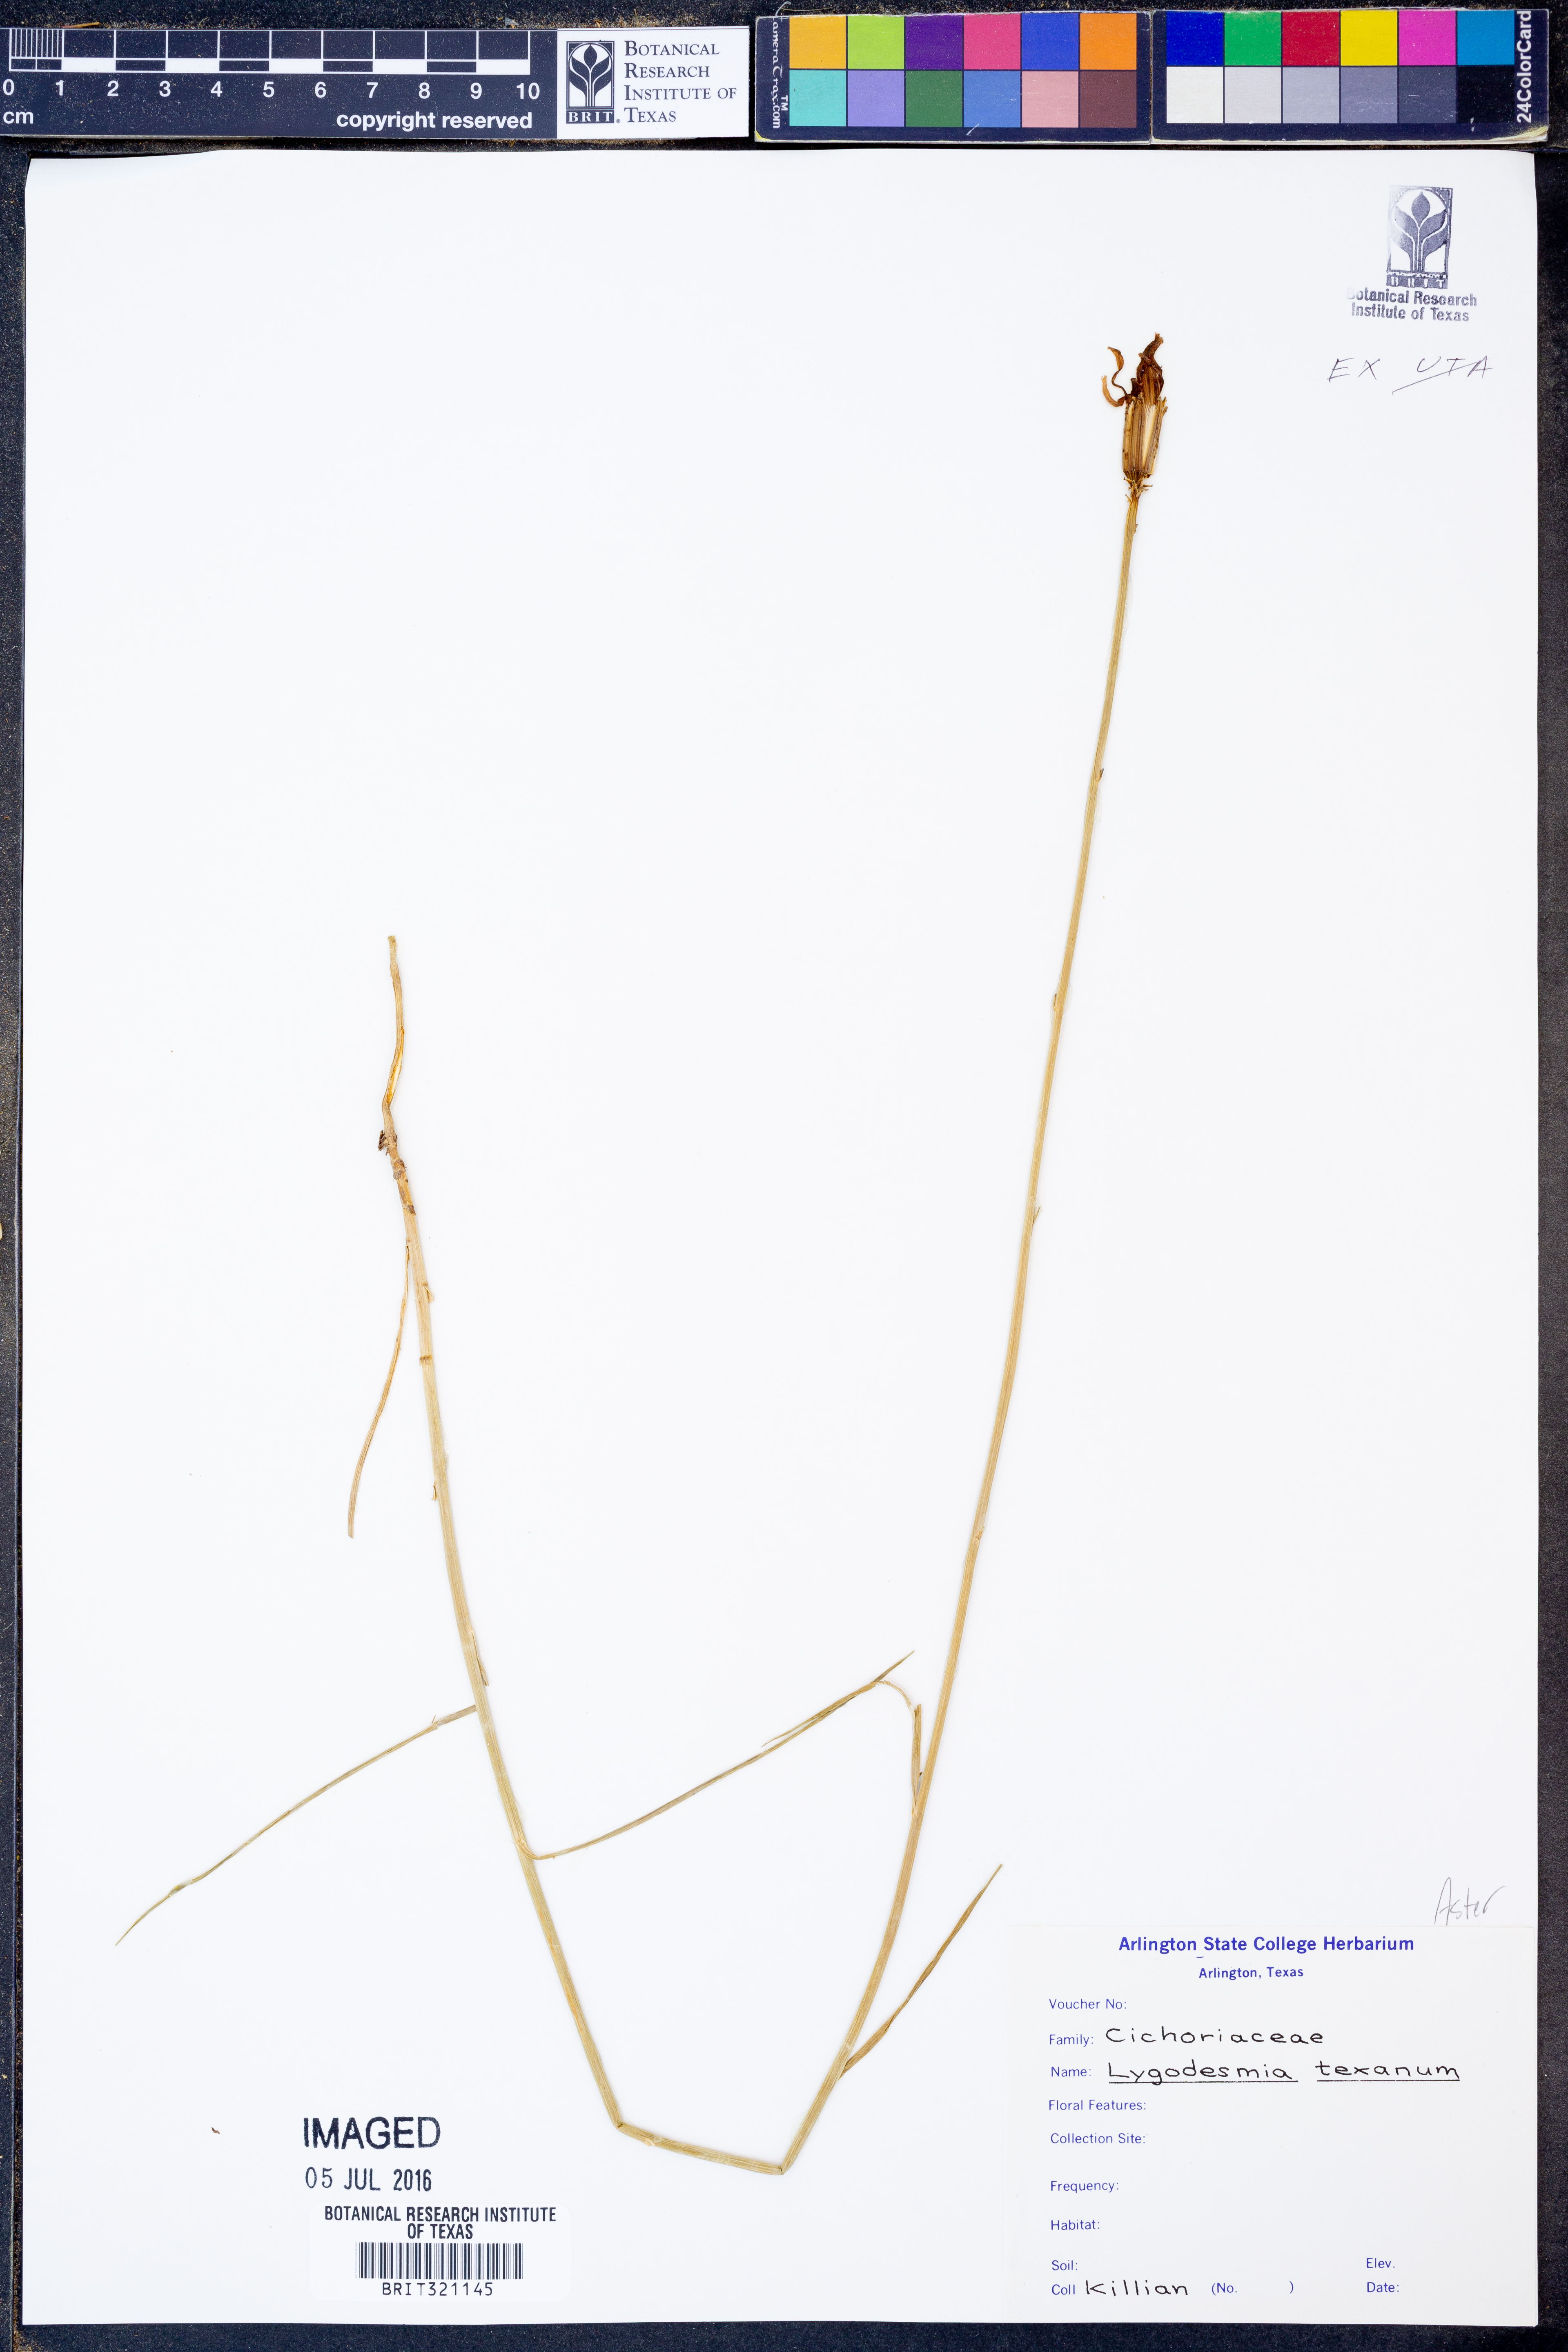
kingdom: Plantae
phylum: Tracheophyta
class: Magnoliopsida
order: Asterales
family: Asteraceae
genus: Lygodesmia
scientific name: Lygodesmia texana
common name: Texas skeleton-plant
